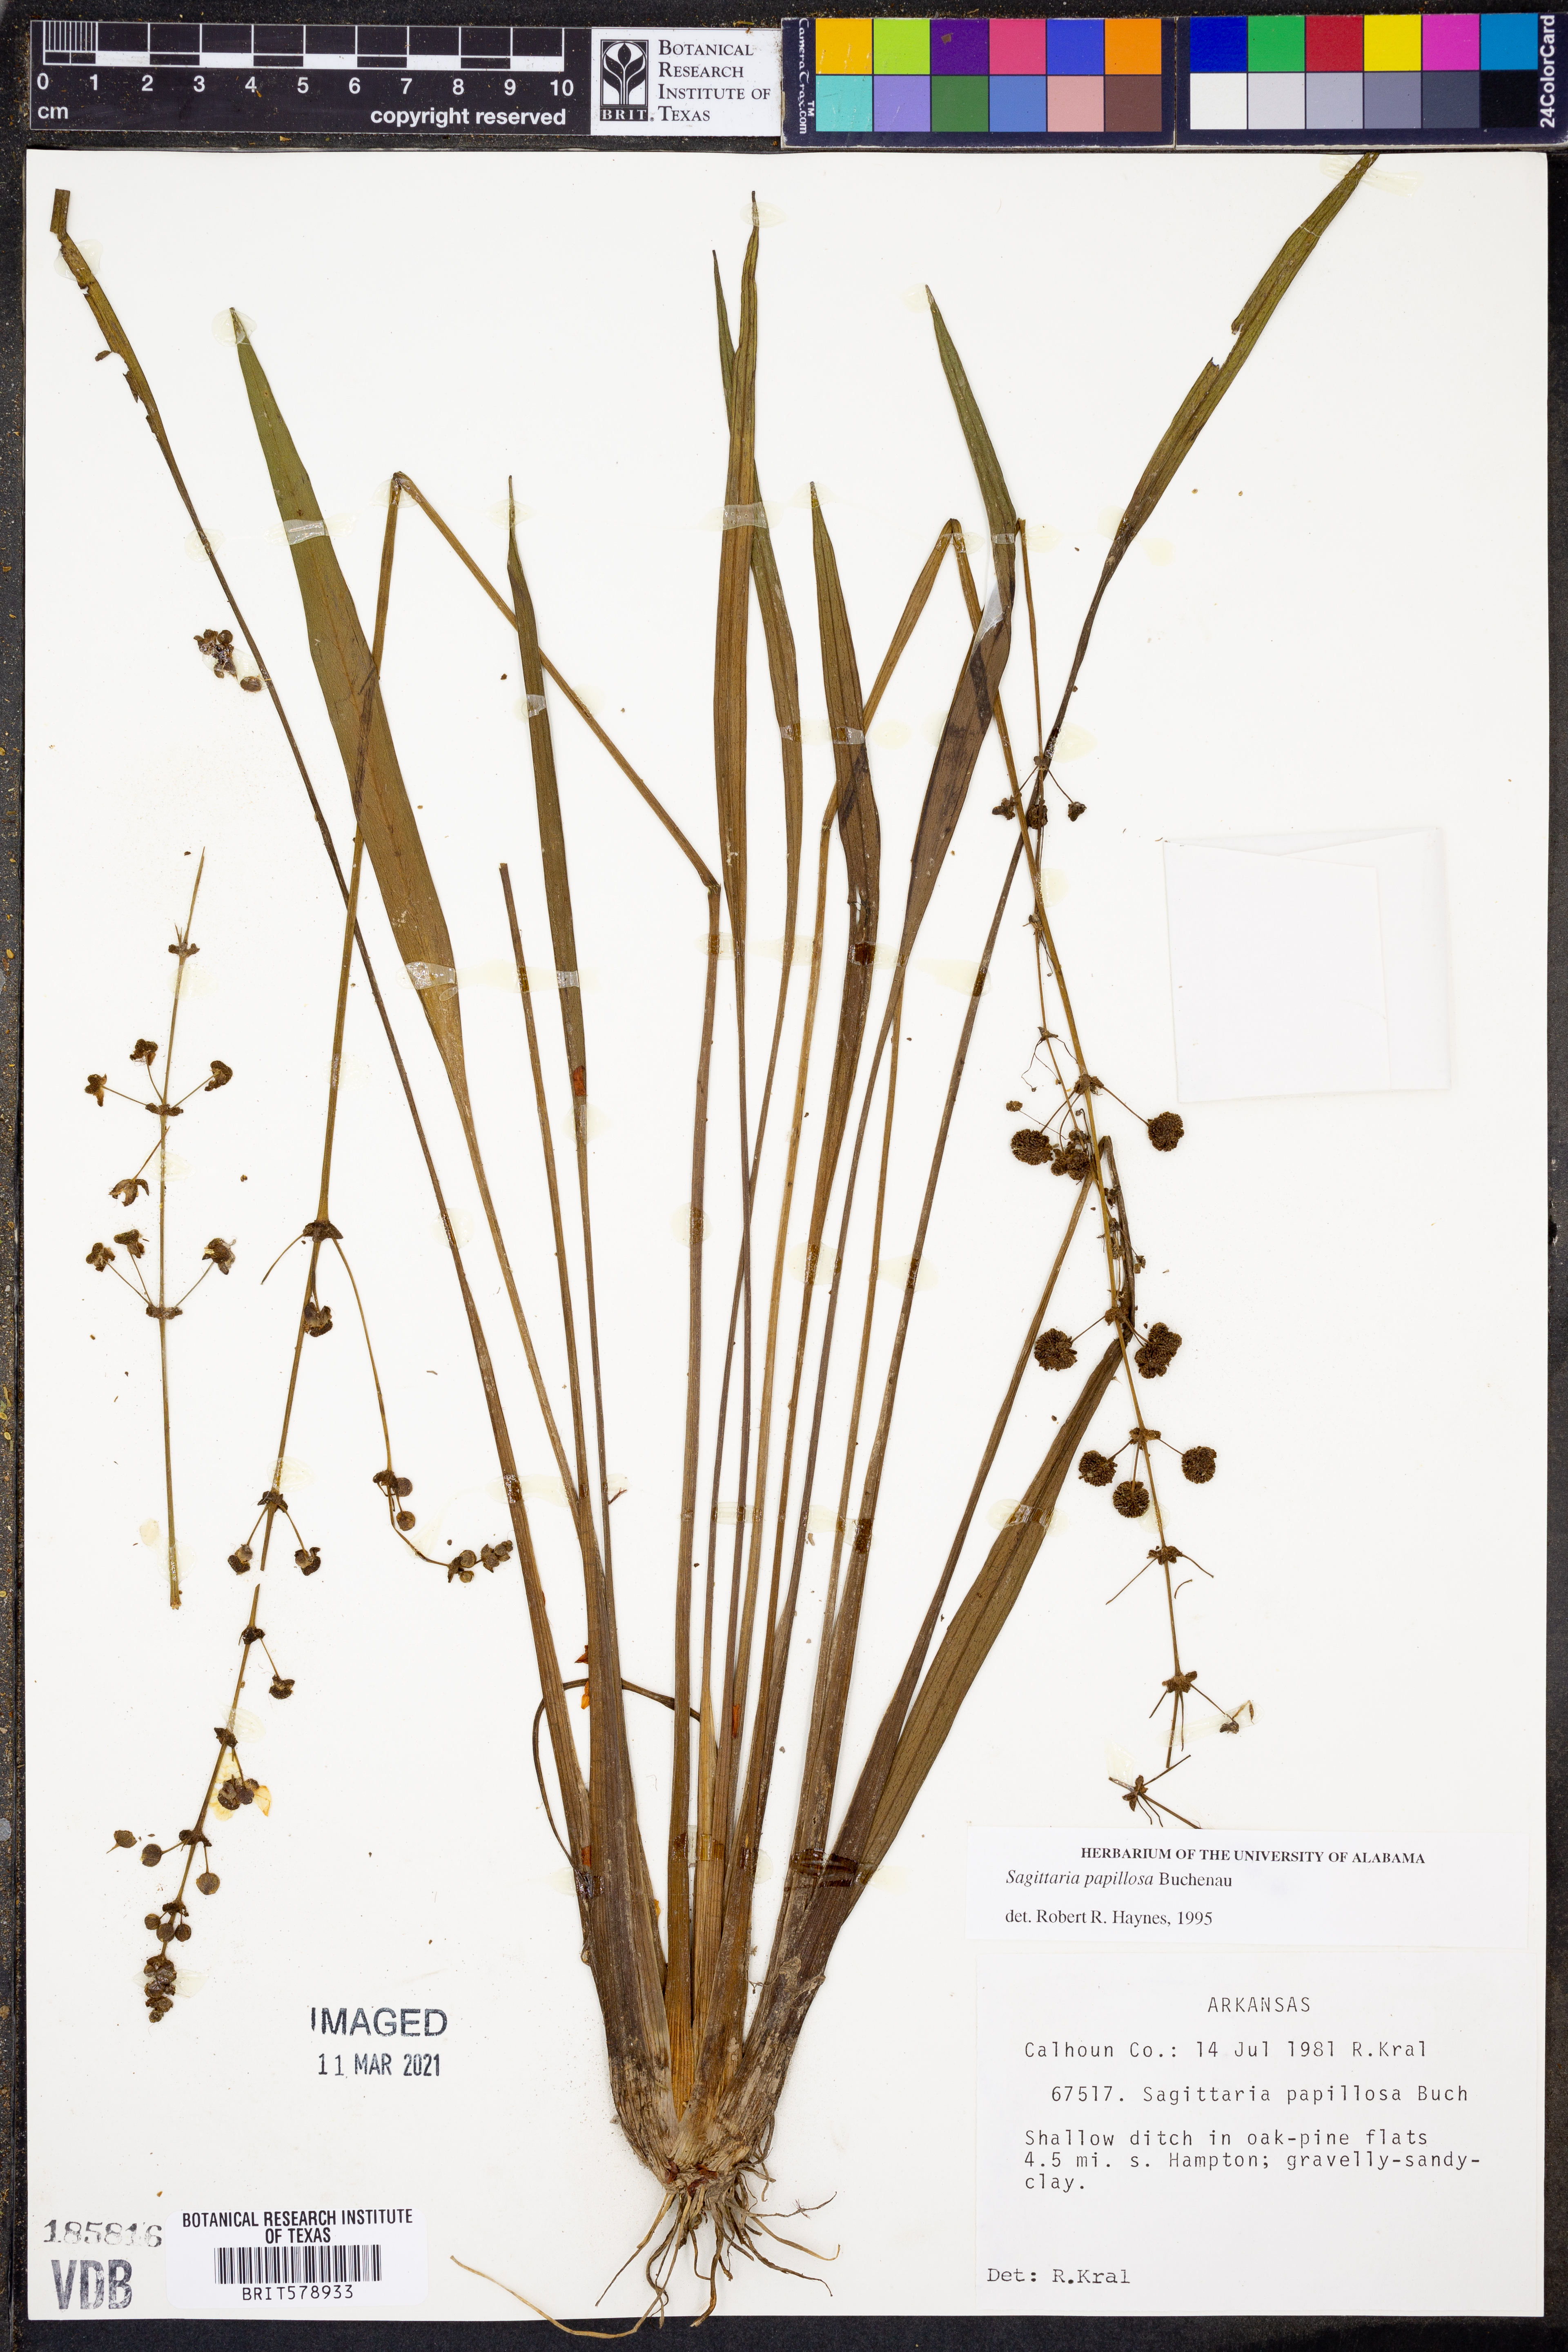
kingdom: Plantae
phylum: Tracheophyta
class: Liliopsida
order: Alismatales
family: Alismataceae
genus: Sagittaria
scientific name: Sagittaria papillosa
